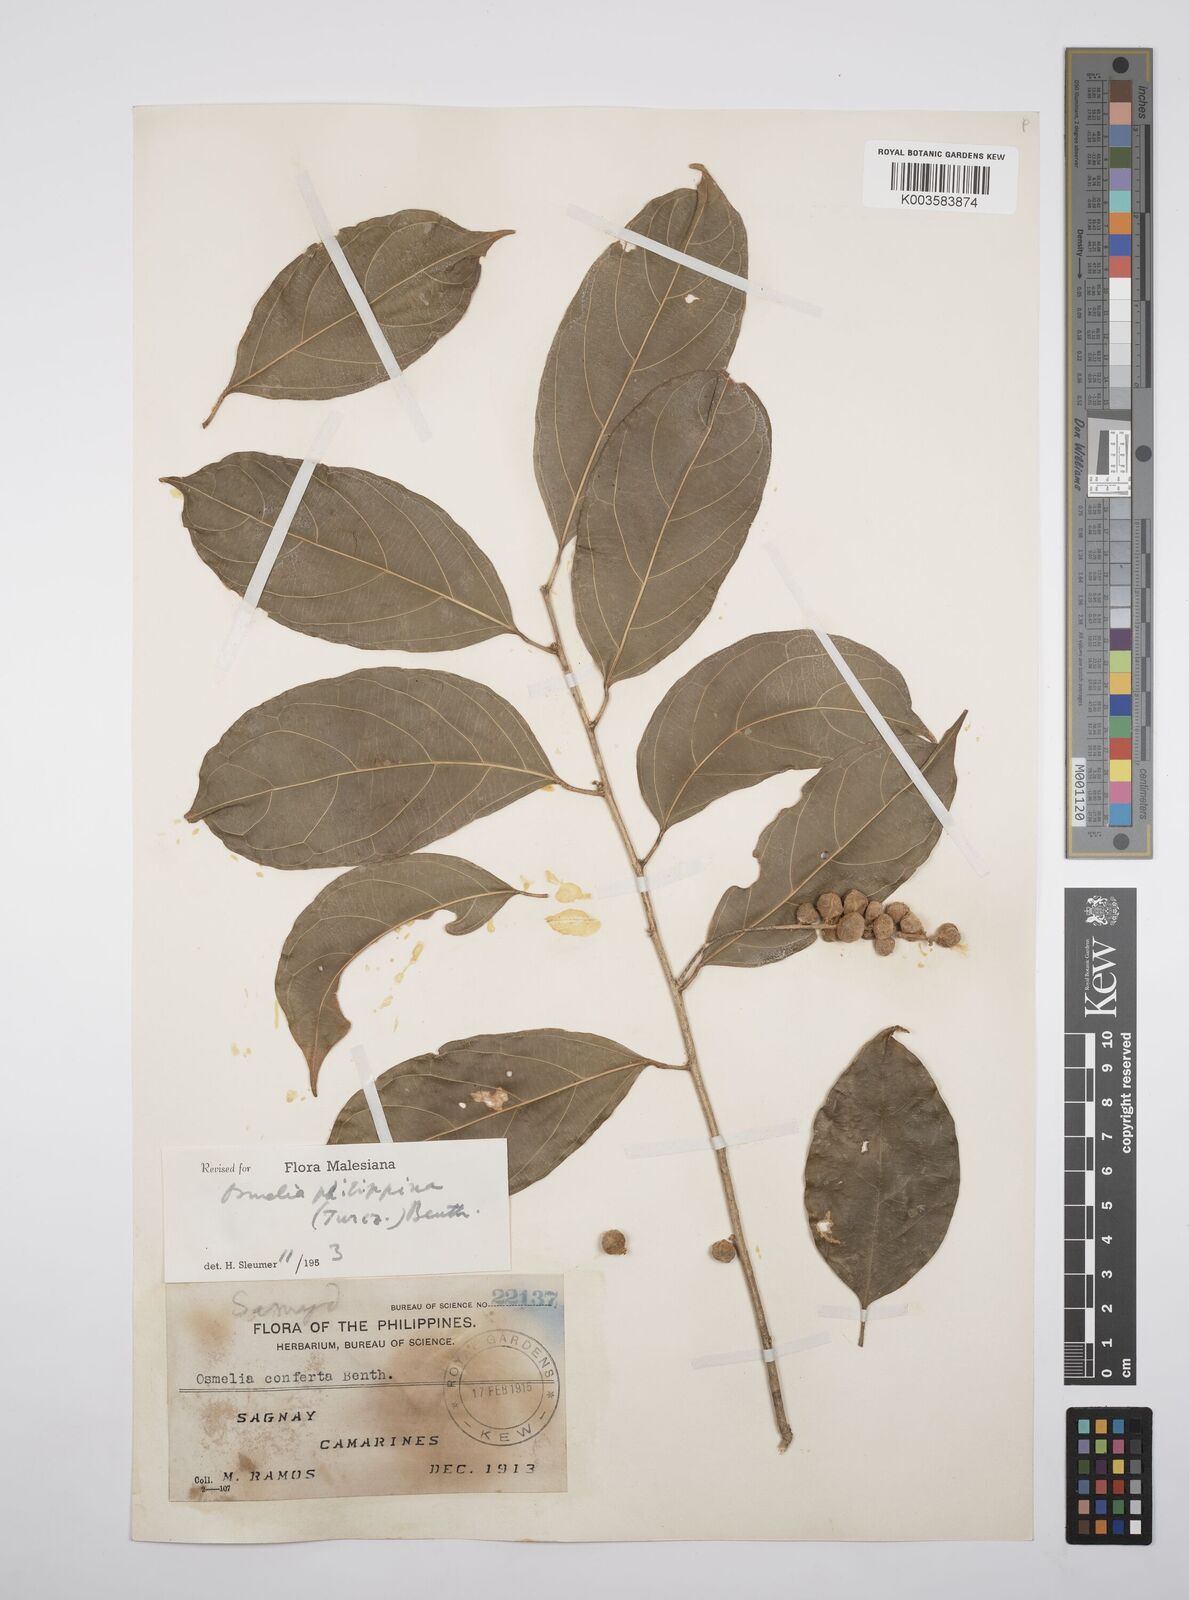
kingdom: Plantae
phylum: Tracheophyta
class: Magnoliopsida
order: Malpighiales
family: Salicaceae
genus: Osmelia
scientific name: Osmelia philippina
